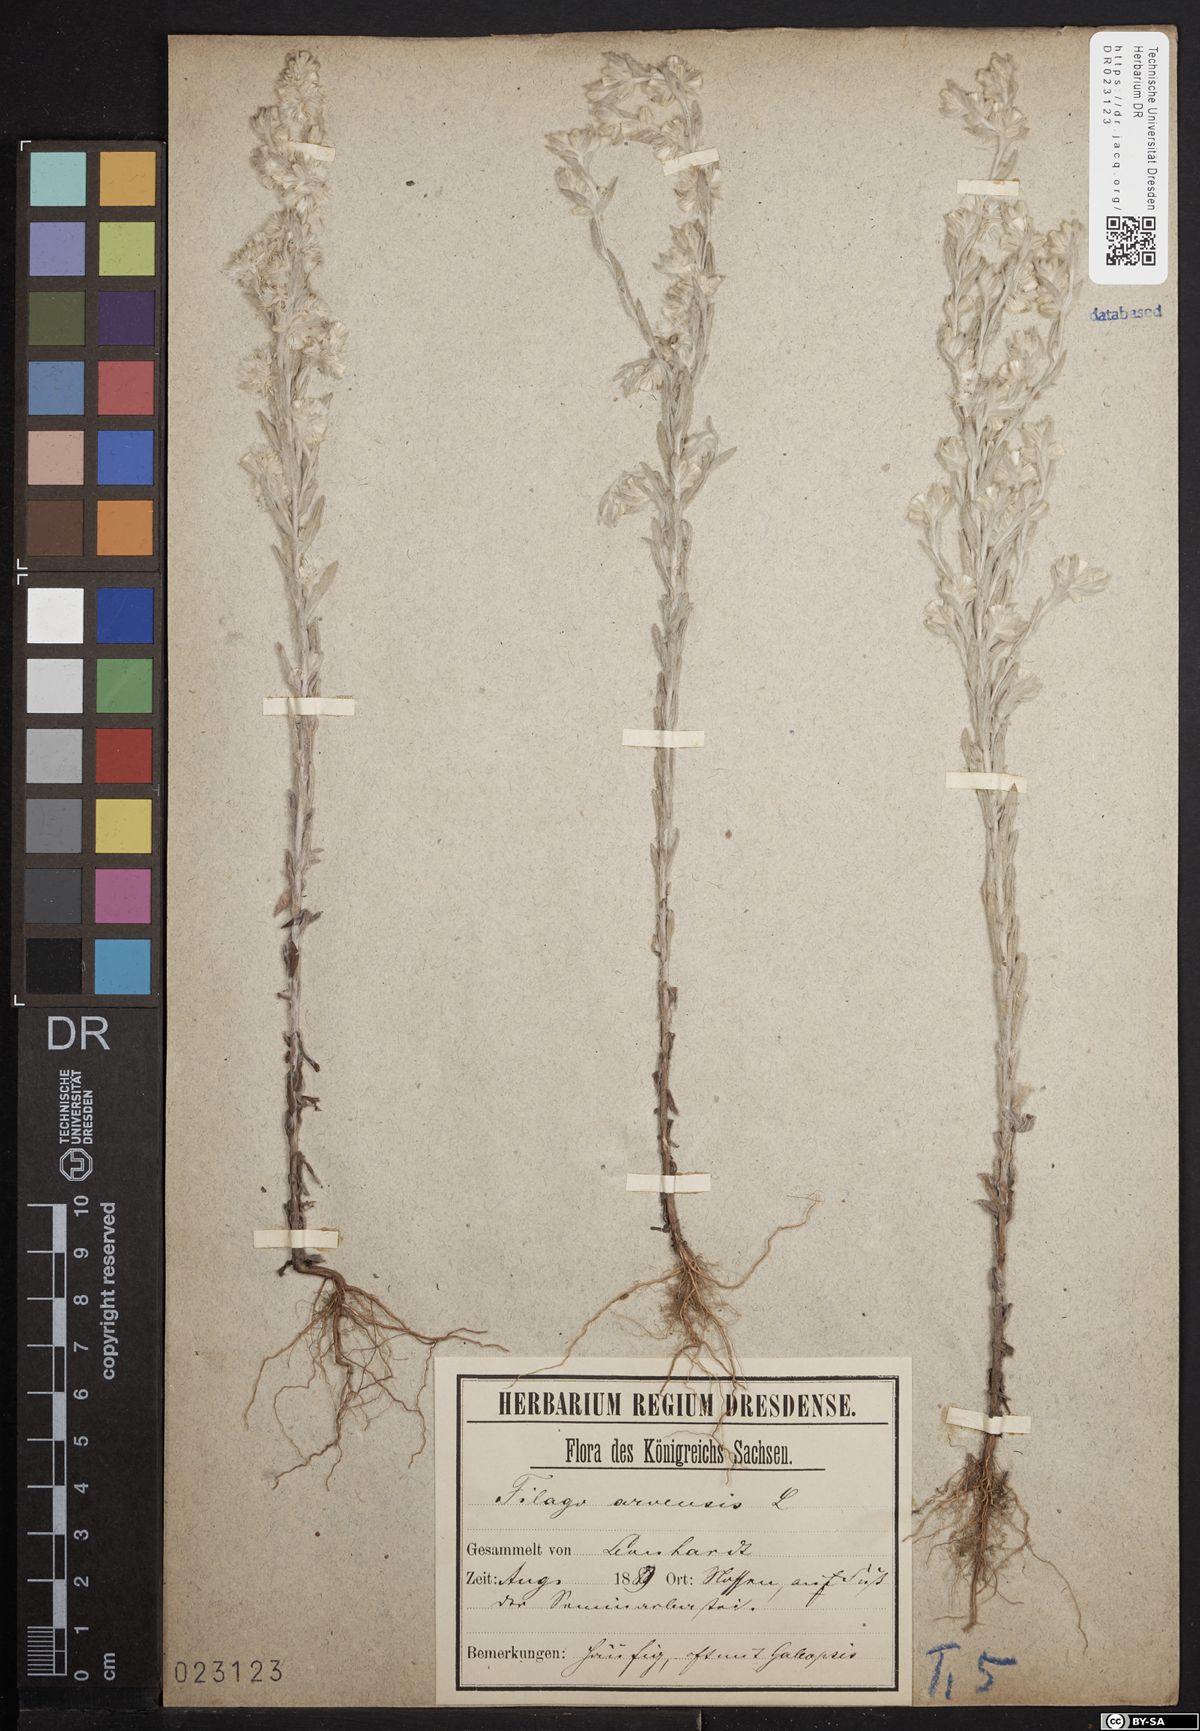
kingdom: Plantae
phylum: Tracheophyta
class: Magnoliopsida
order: Asterales
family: Asteraceae
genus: Filago
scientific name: Filago arvensis
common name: Field cudweed
